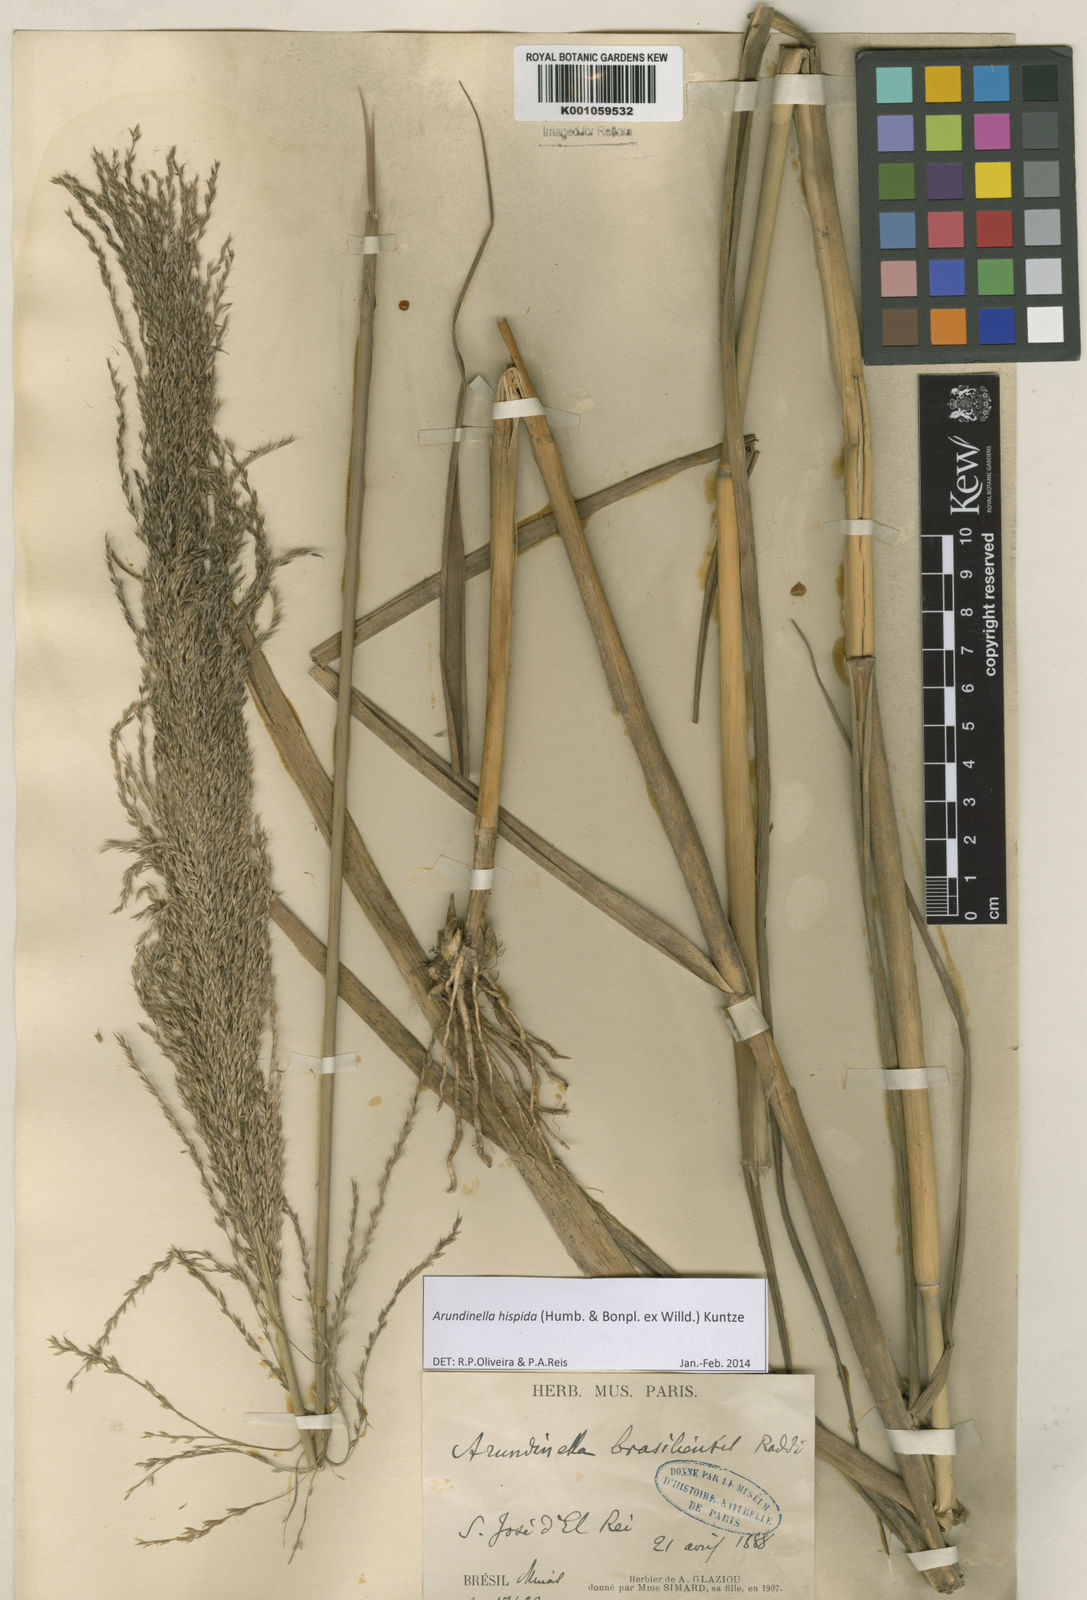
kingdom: Plantae
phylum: Tracheophyta
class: Liliopsida
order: Poales
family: Poaceae
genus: Arundinella
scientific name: Arundinella hispida
